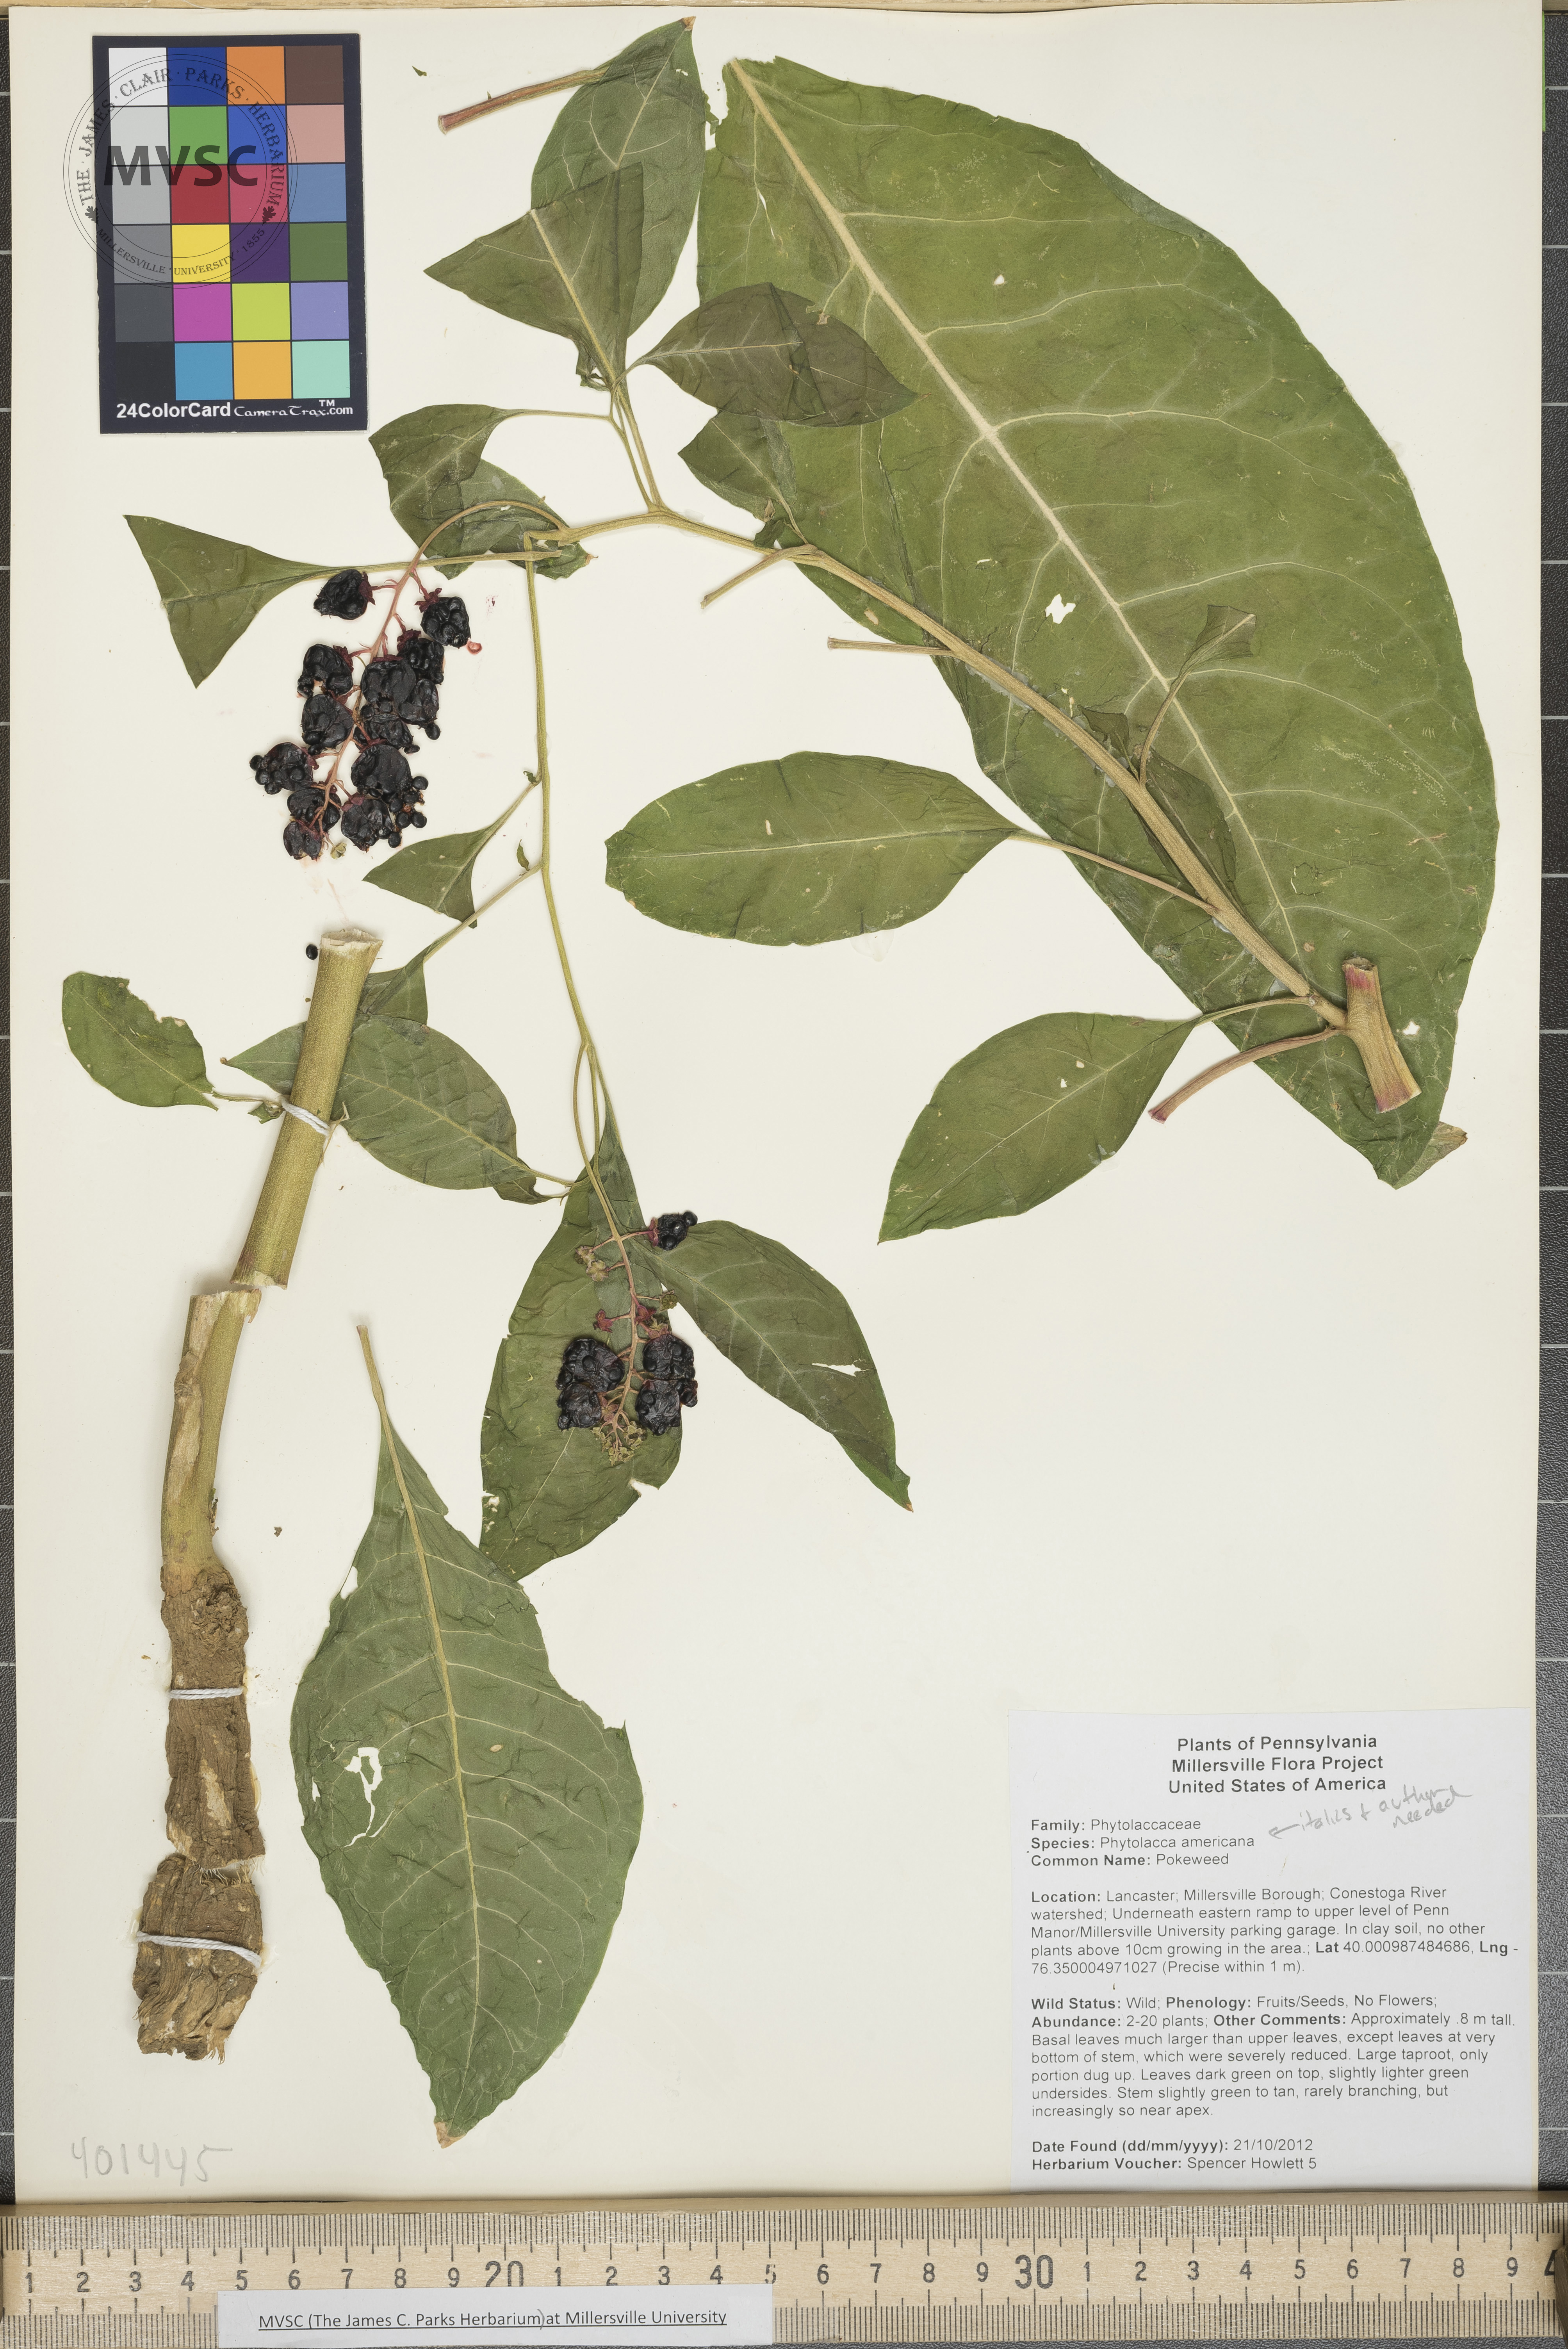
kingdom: Plantae
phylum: Tracheophyta
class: Magnoliopsida
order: Caryophyllales
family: Phytolaccaceae
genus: Phytolacca
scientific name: Phytolacca americana
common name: Pokeweed
